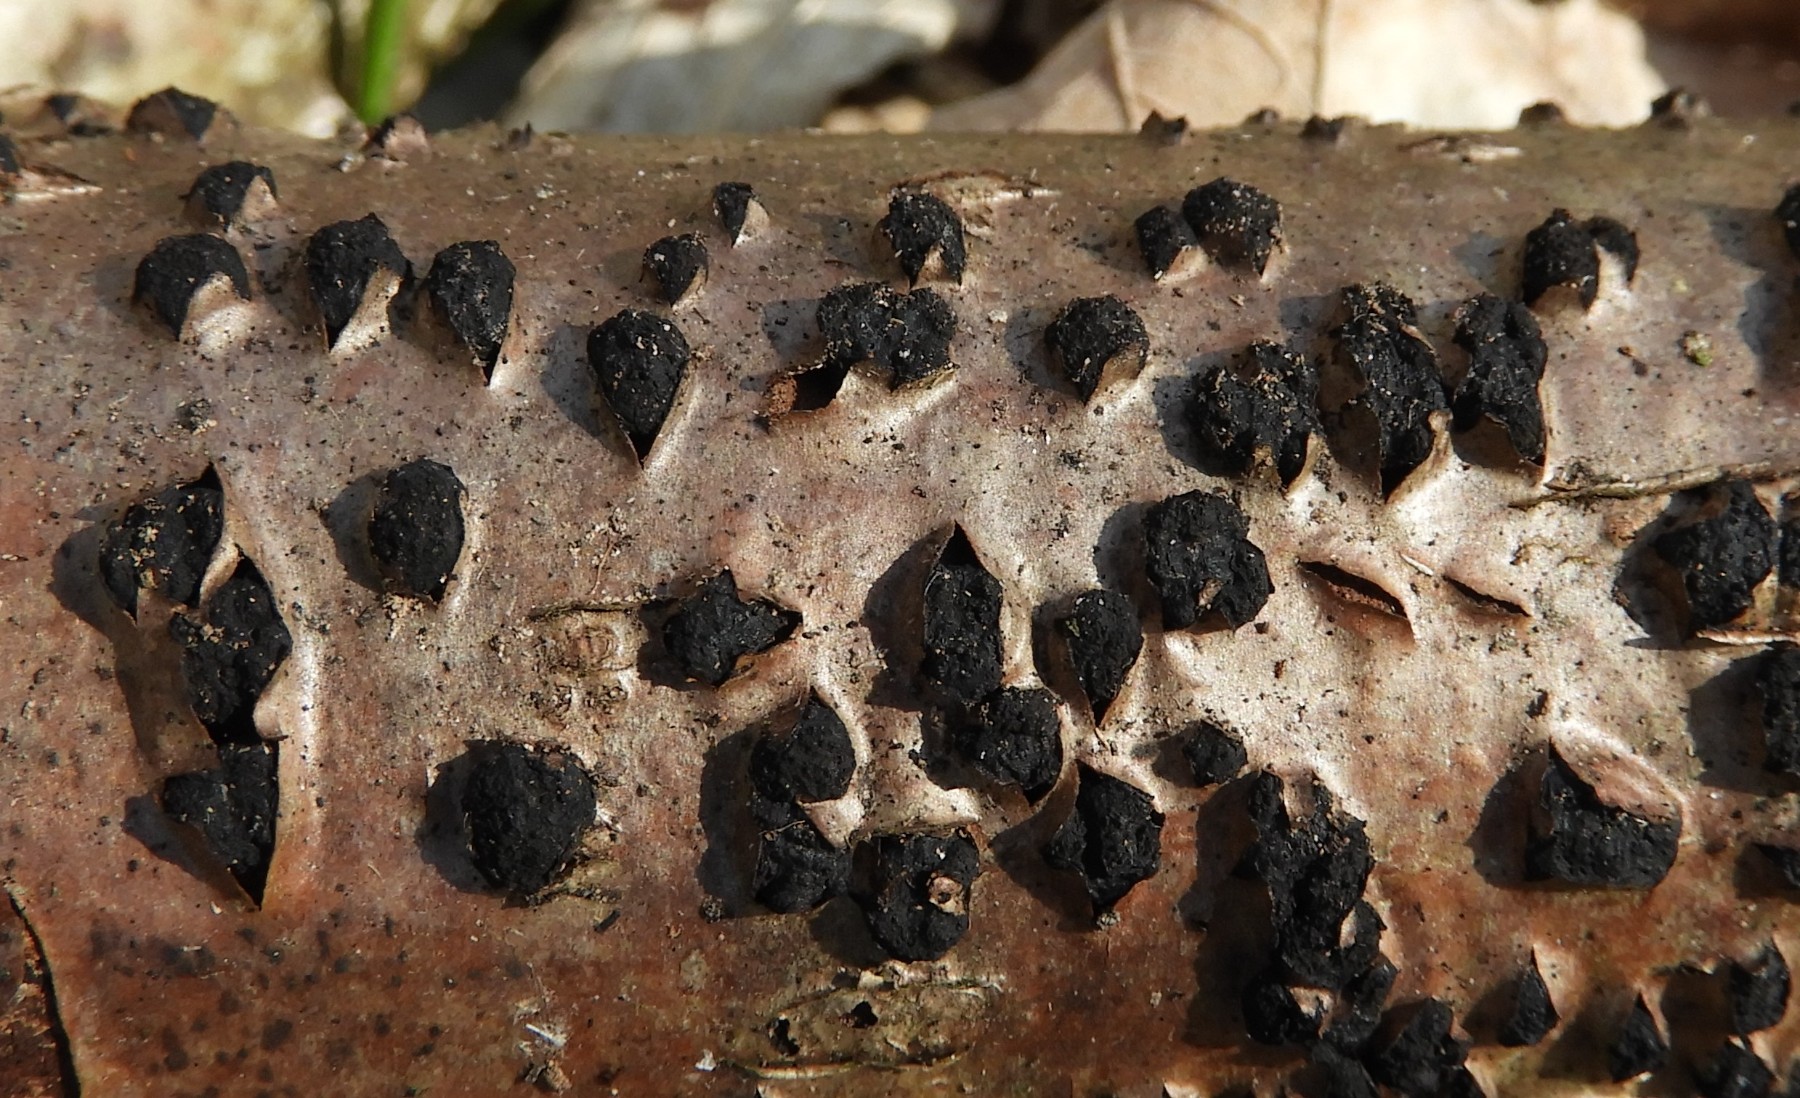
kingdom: Fungi
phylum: Ascomycota
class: Sordariomycetes
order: Xylariales
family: Diatrypaceae
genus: Diatrypella
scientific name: Diatrypella quercina
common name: ege-kulskorpe
